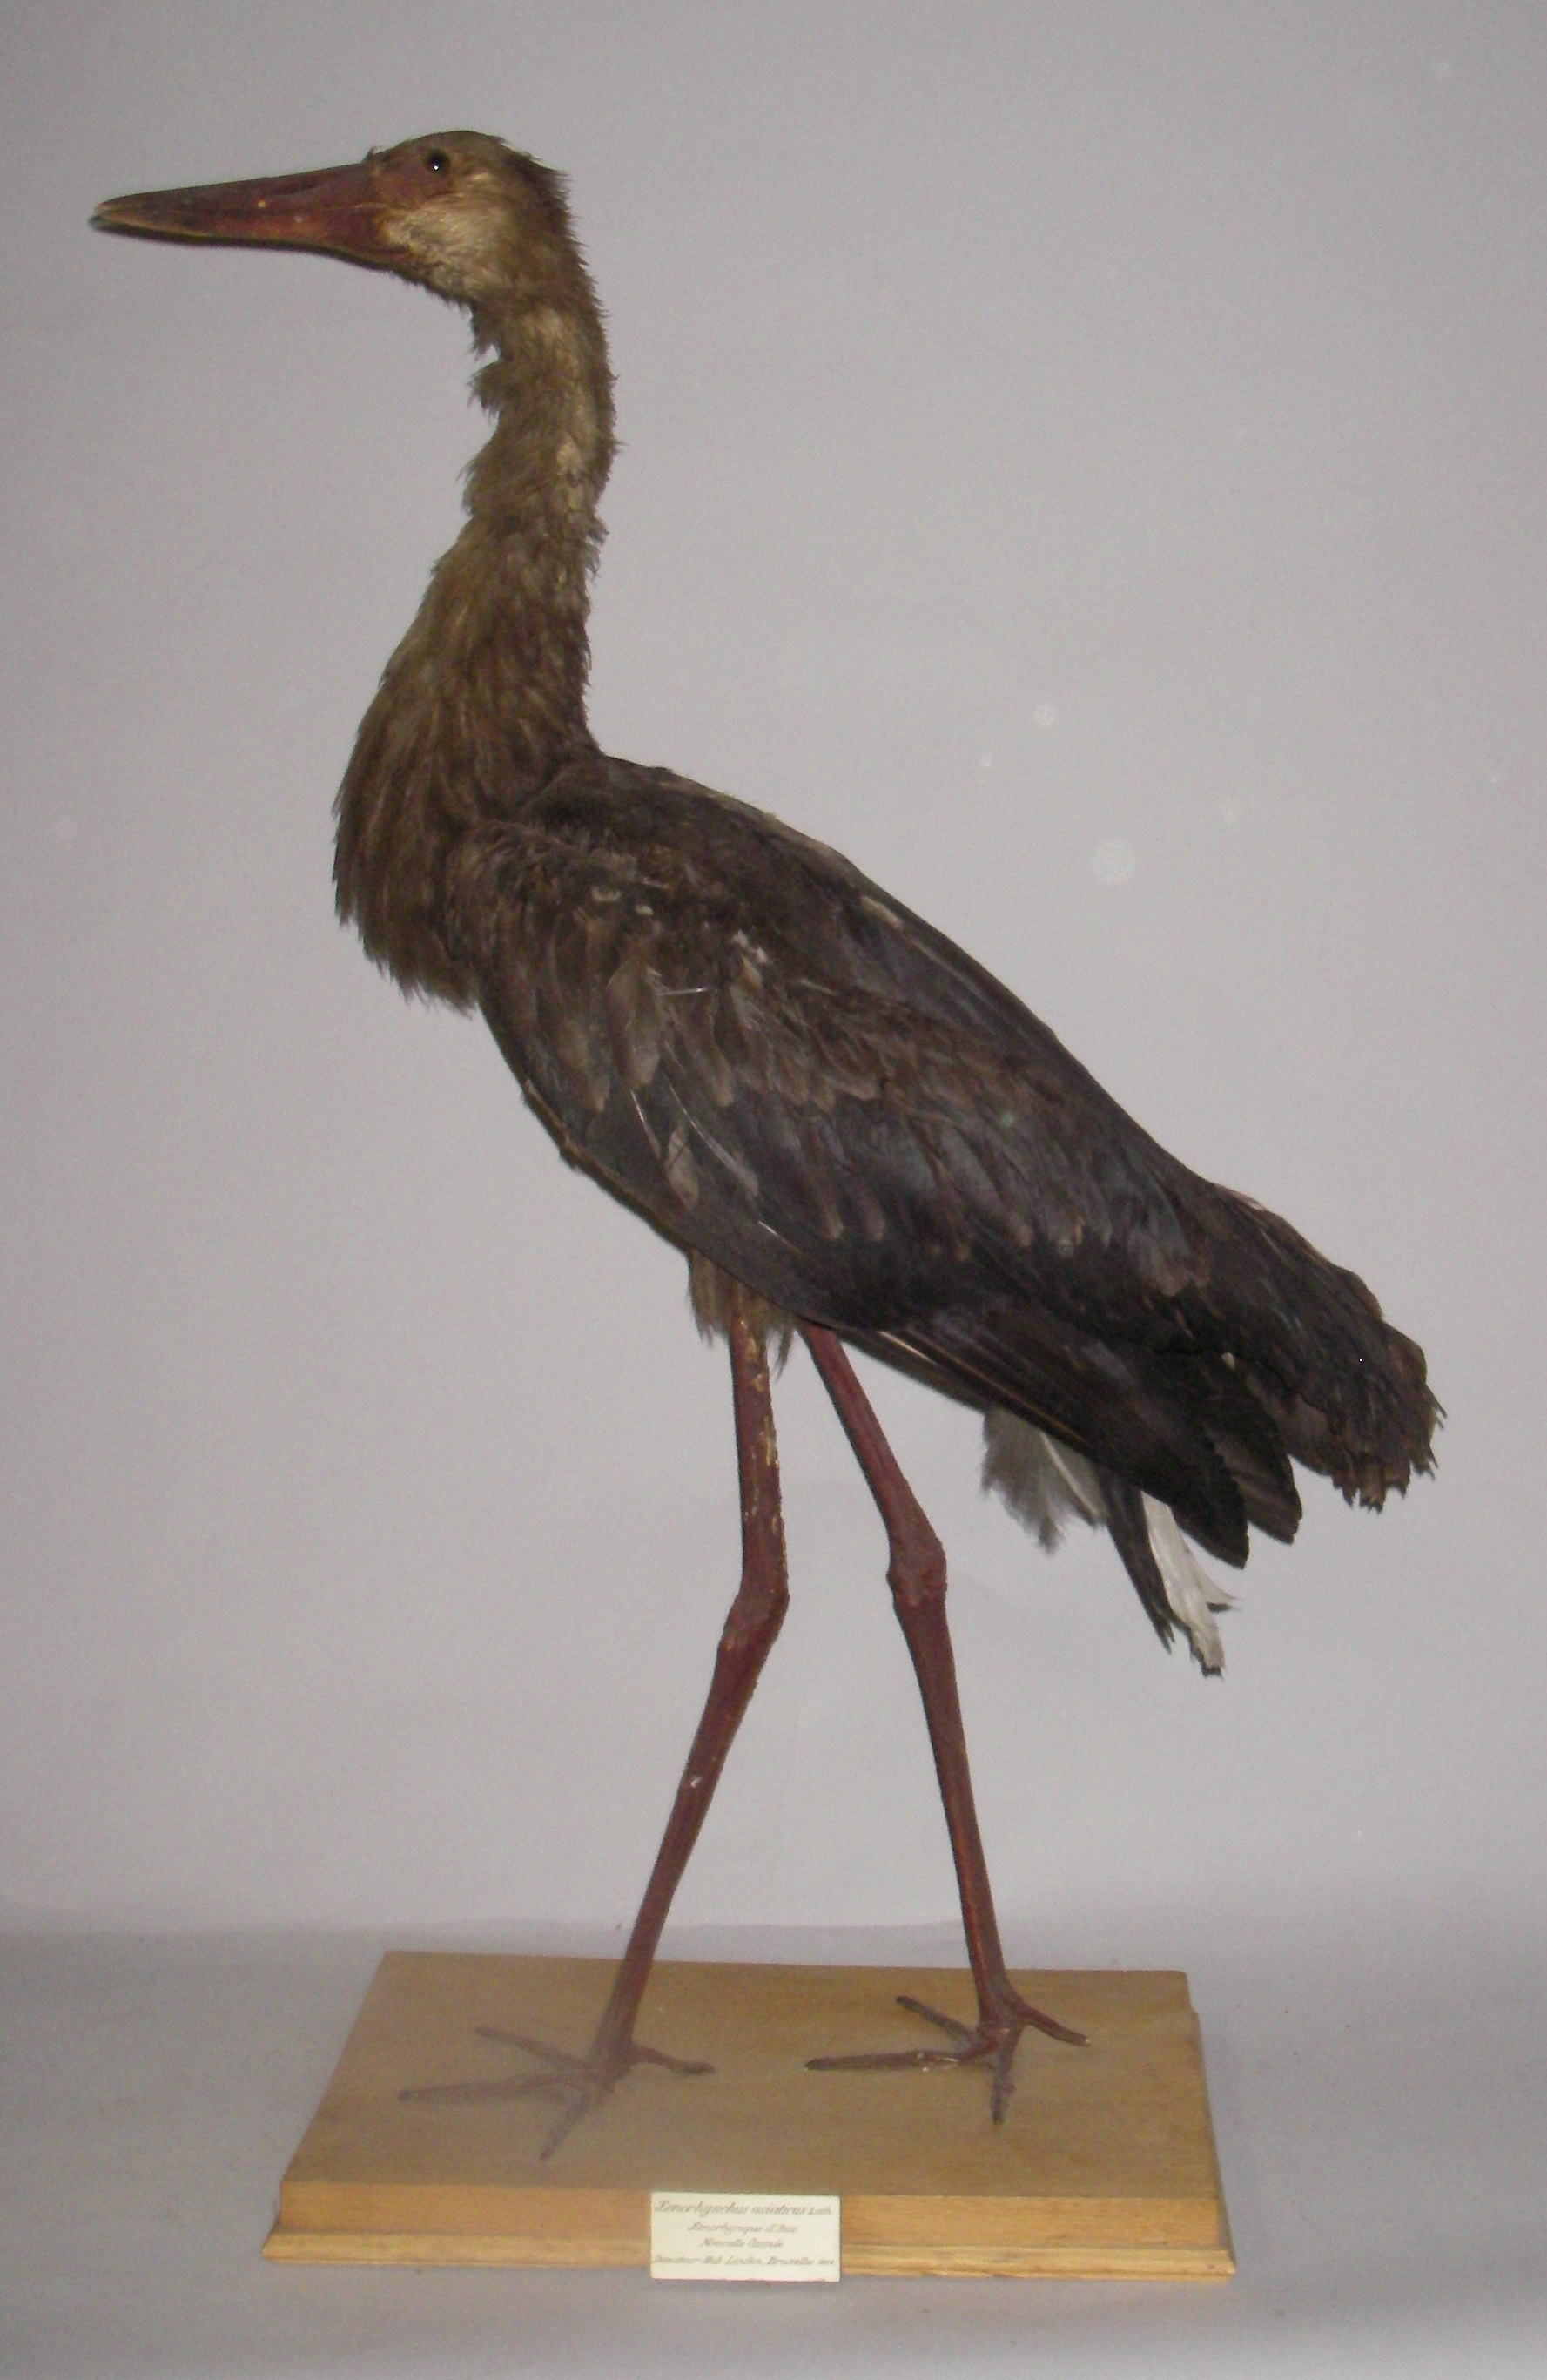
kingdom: Animalia
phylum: Chordata
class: Aves
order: Ciconiiformes
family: Ciconiidae
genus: Ephippiorhynchus
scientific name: Ephippiorhynchus asiaticus
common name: Black-necked stork
